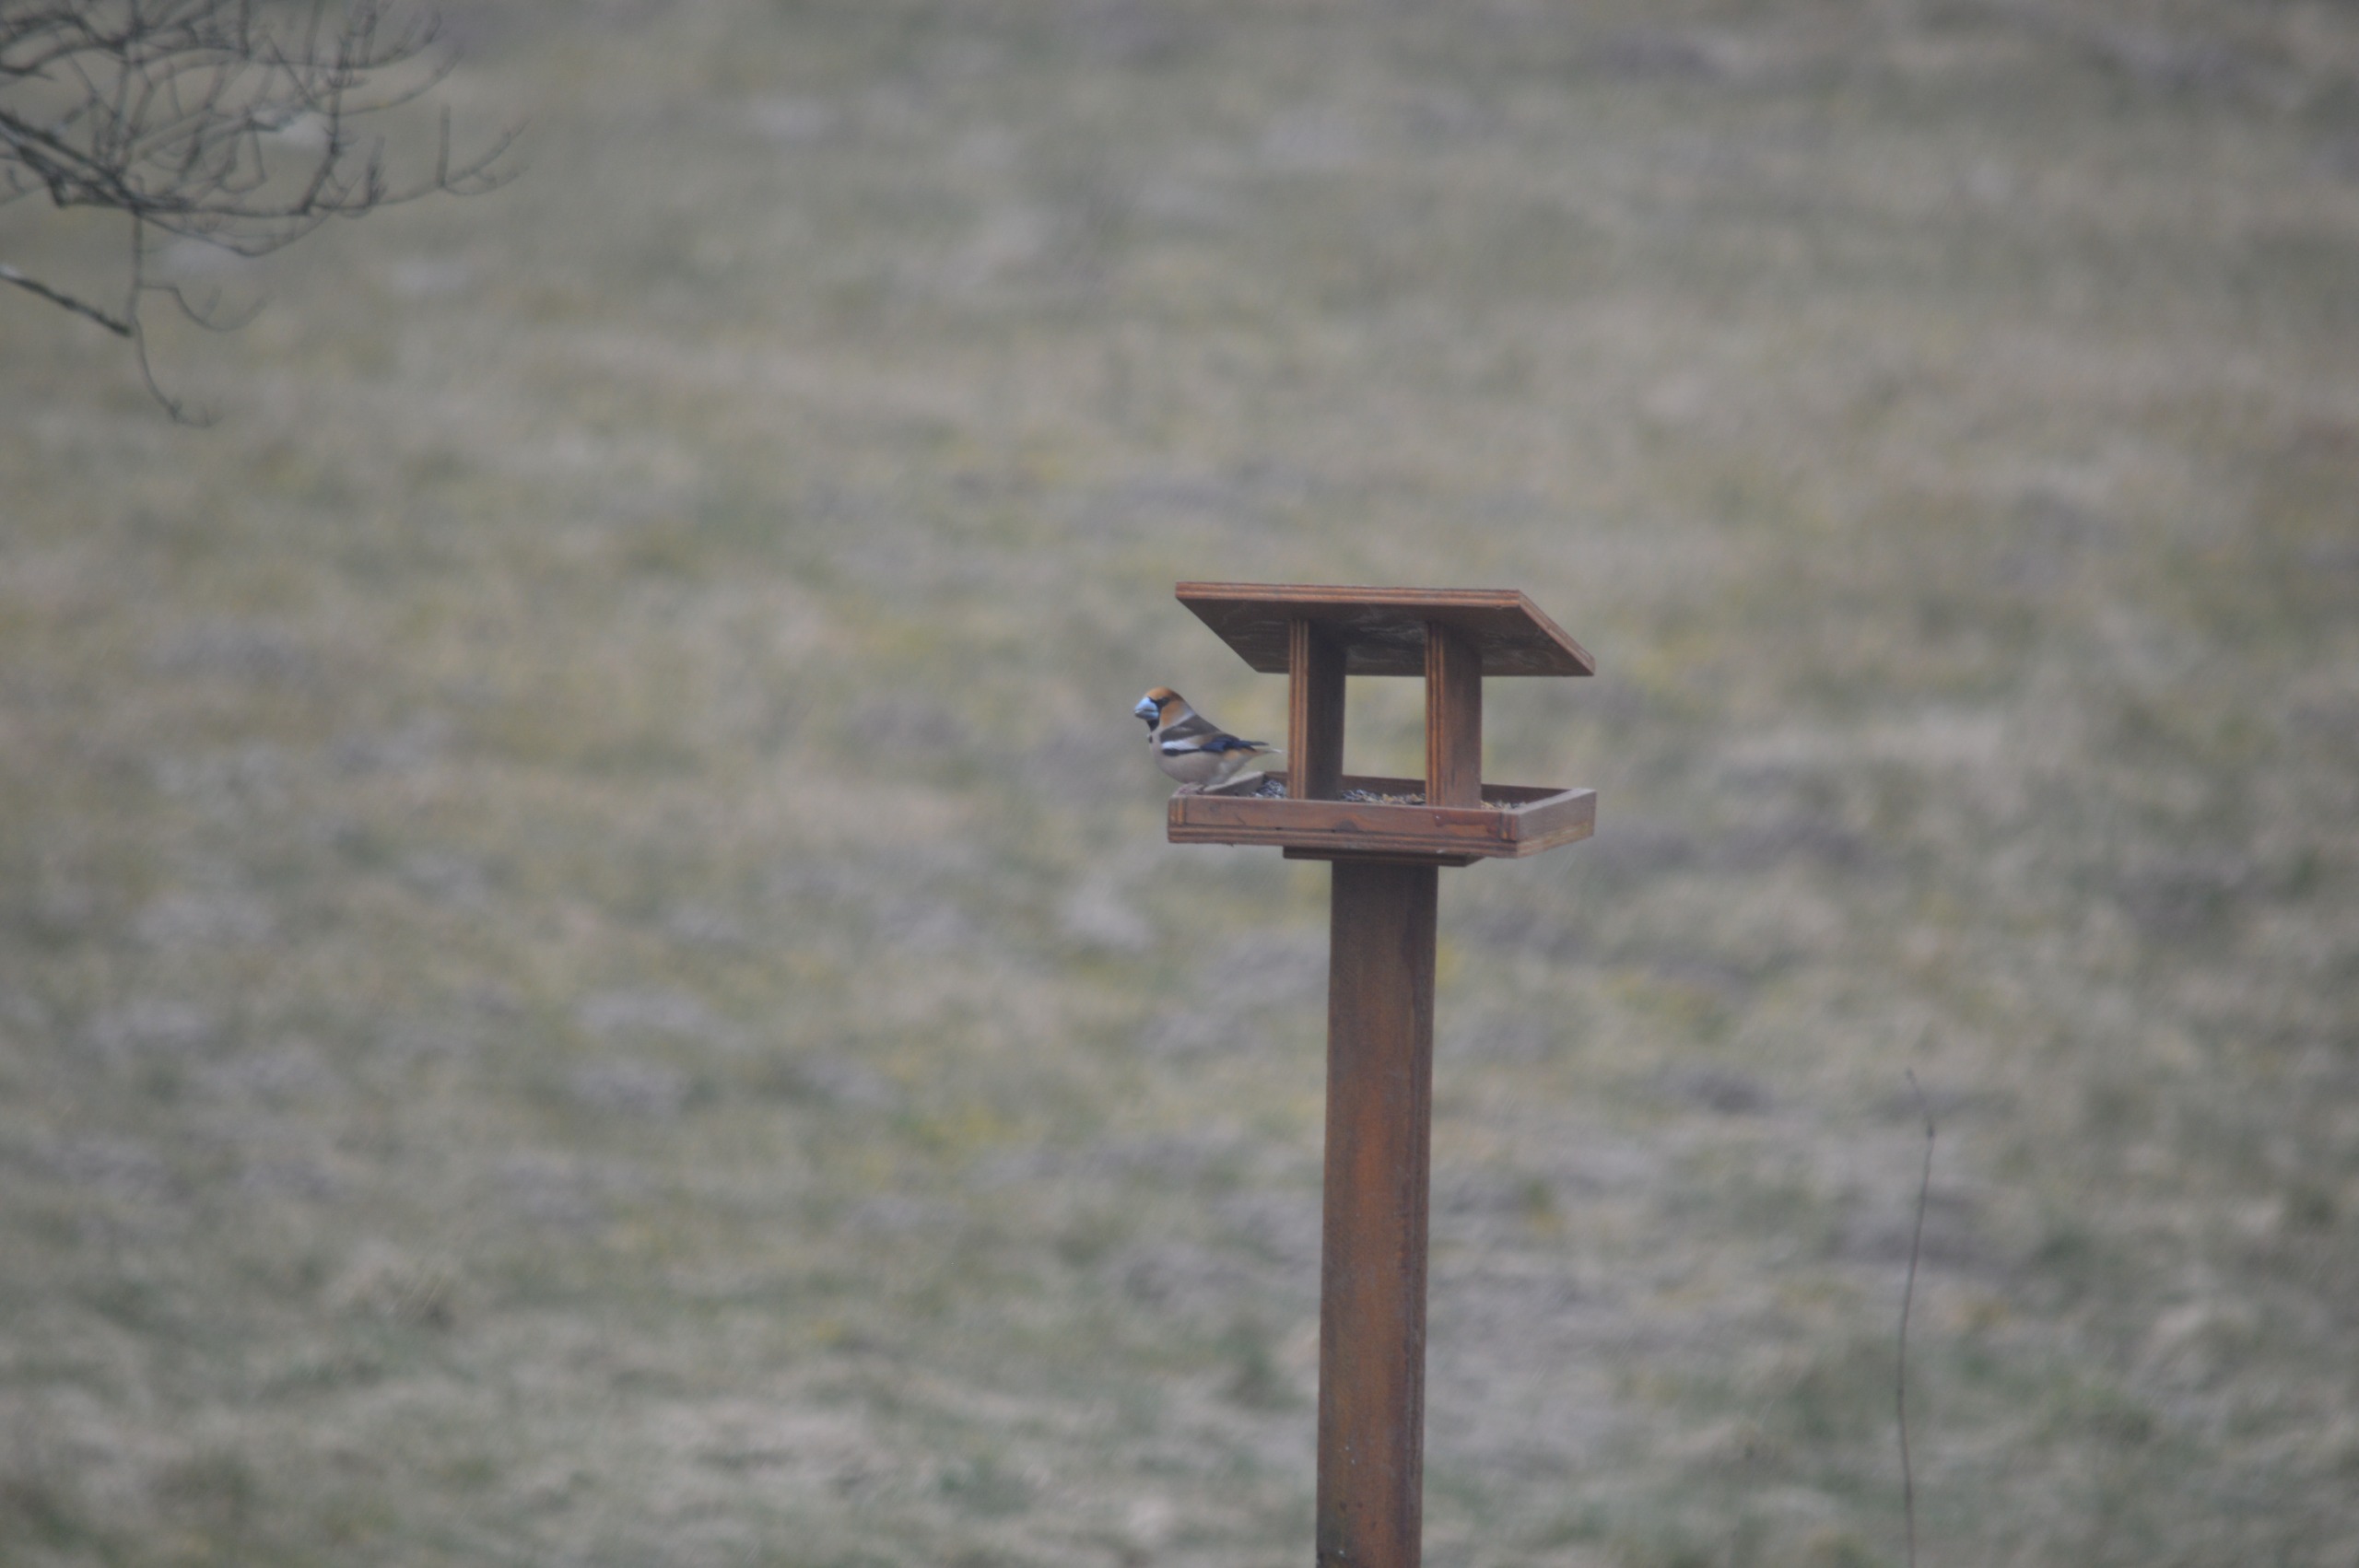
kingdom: Animalia
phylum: Chordata
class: Aves
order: Passeriformes
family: Fringillidae
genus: Coccothraustes
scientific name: Coccothraustes coccothraustes
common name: Kernebider
